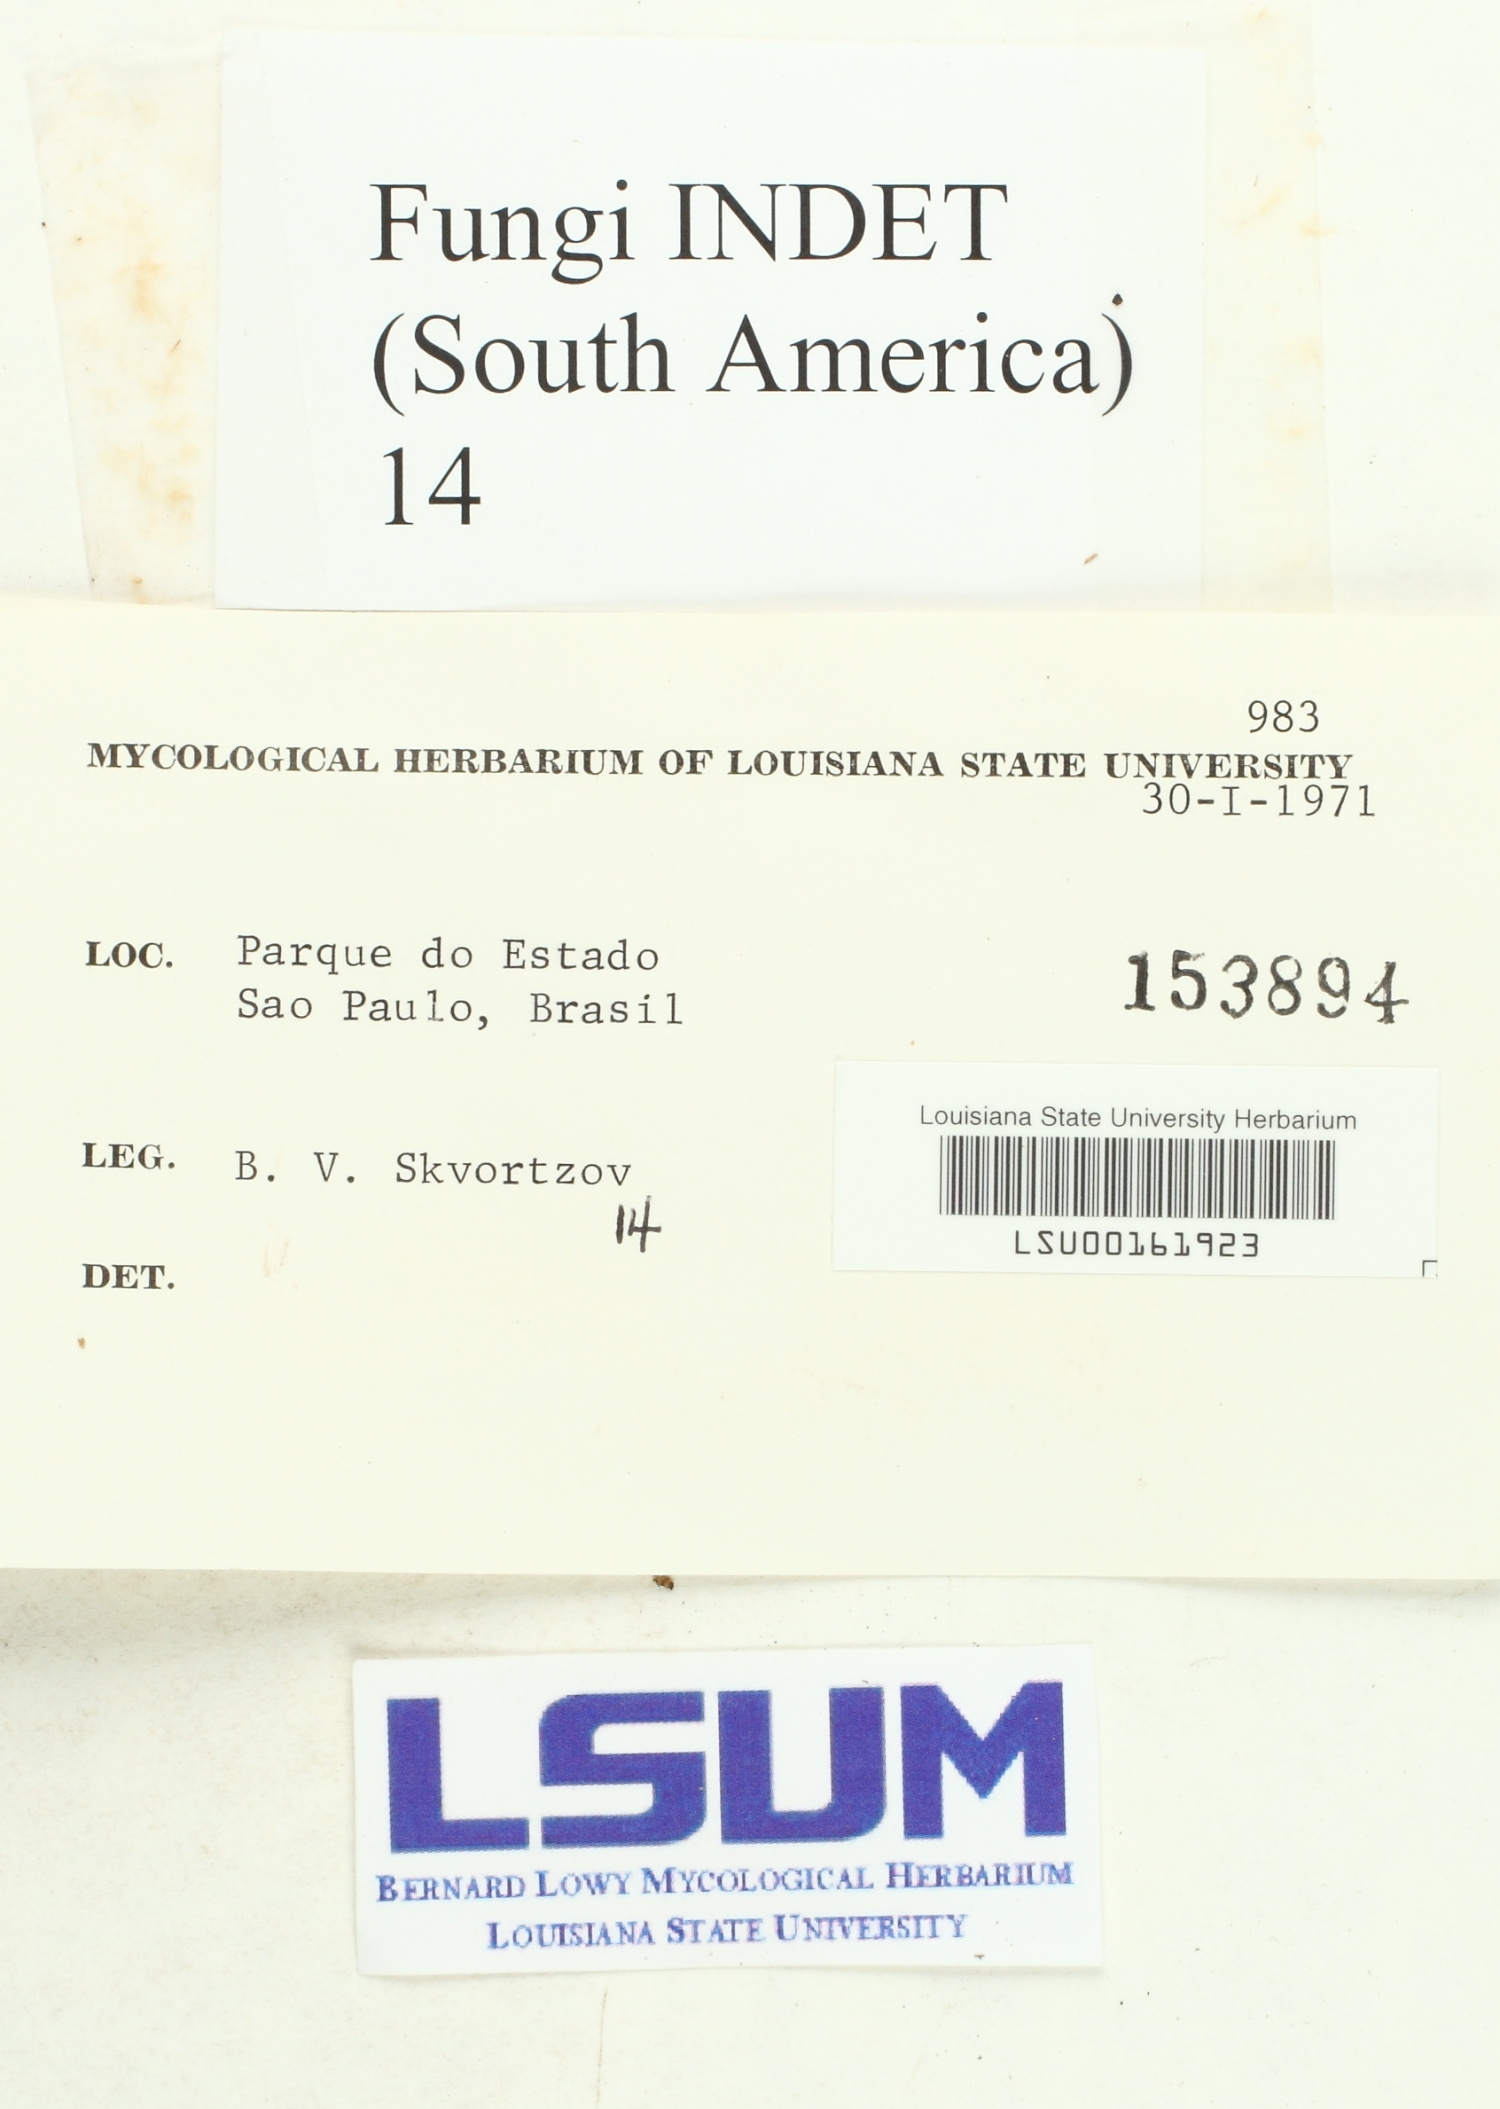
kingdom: Fungi
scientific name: Fungi
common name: Fungi
